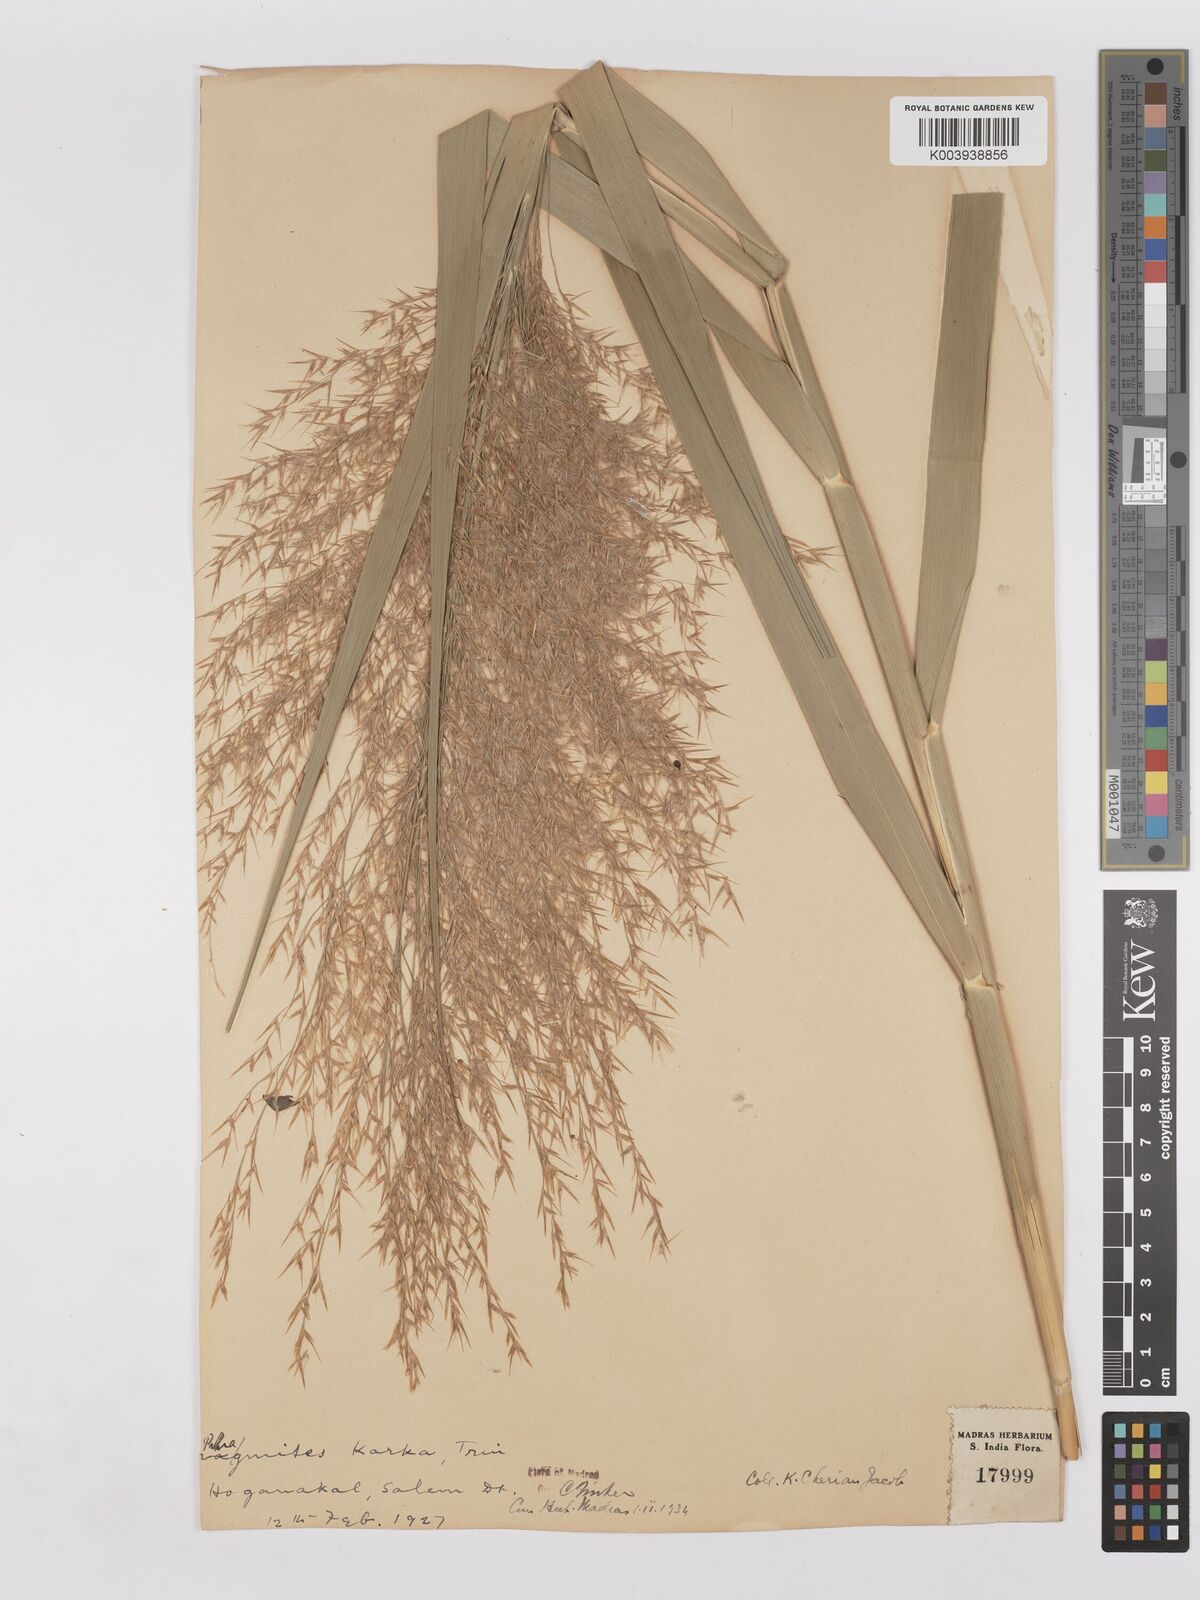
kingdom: Plantae
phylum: Tracheophyta
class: Liliopsida
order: Poales
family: Poaceae
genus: Phragmites
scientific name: Phragmites karka
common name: Tropical reed
